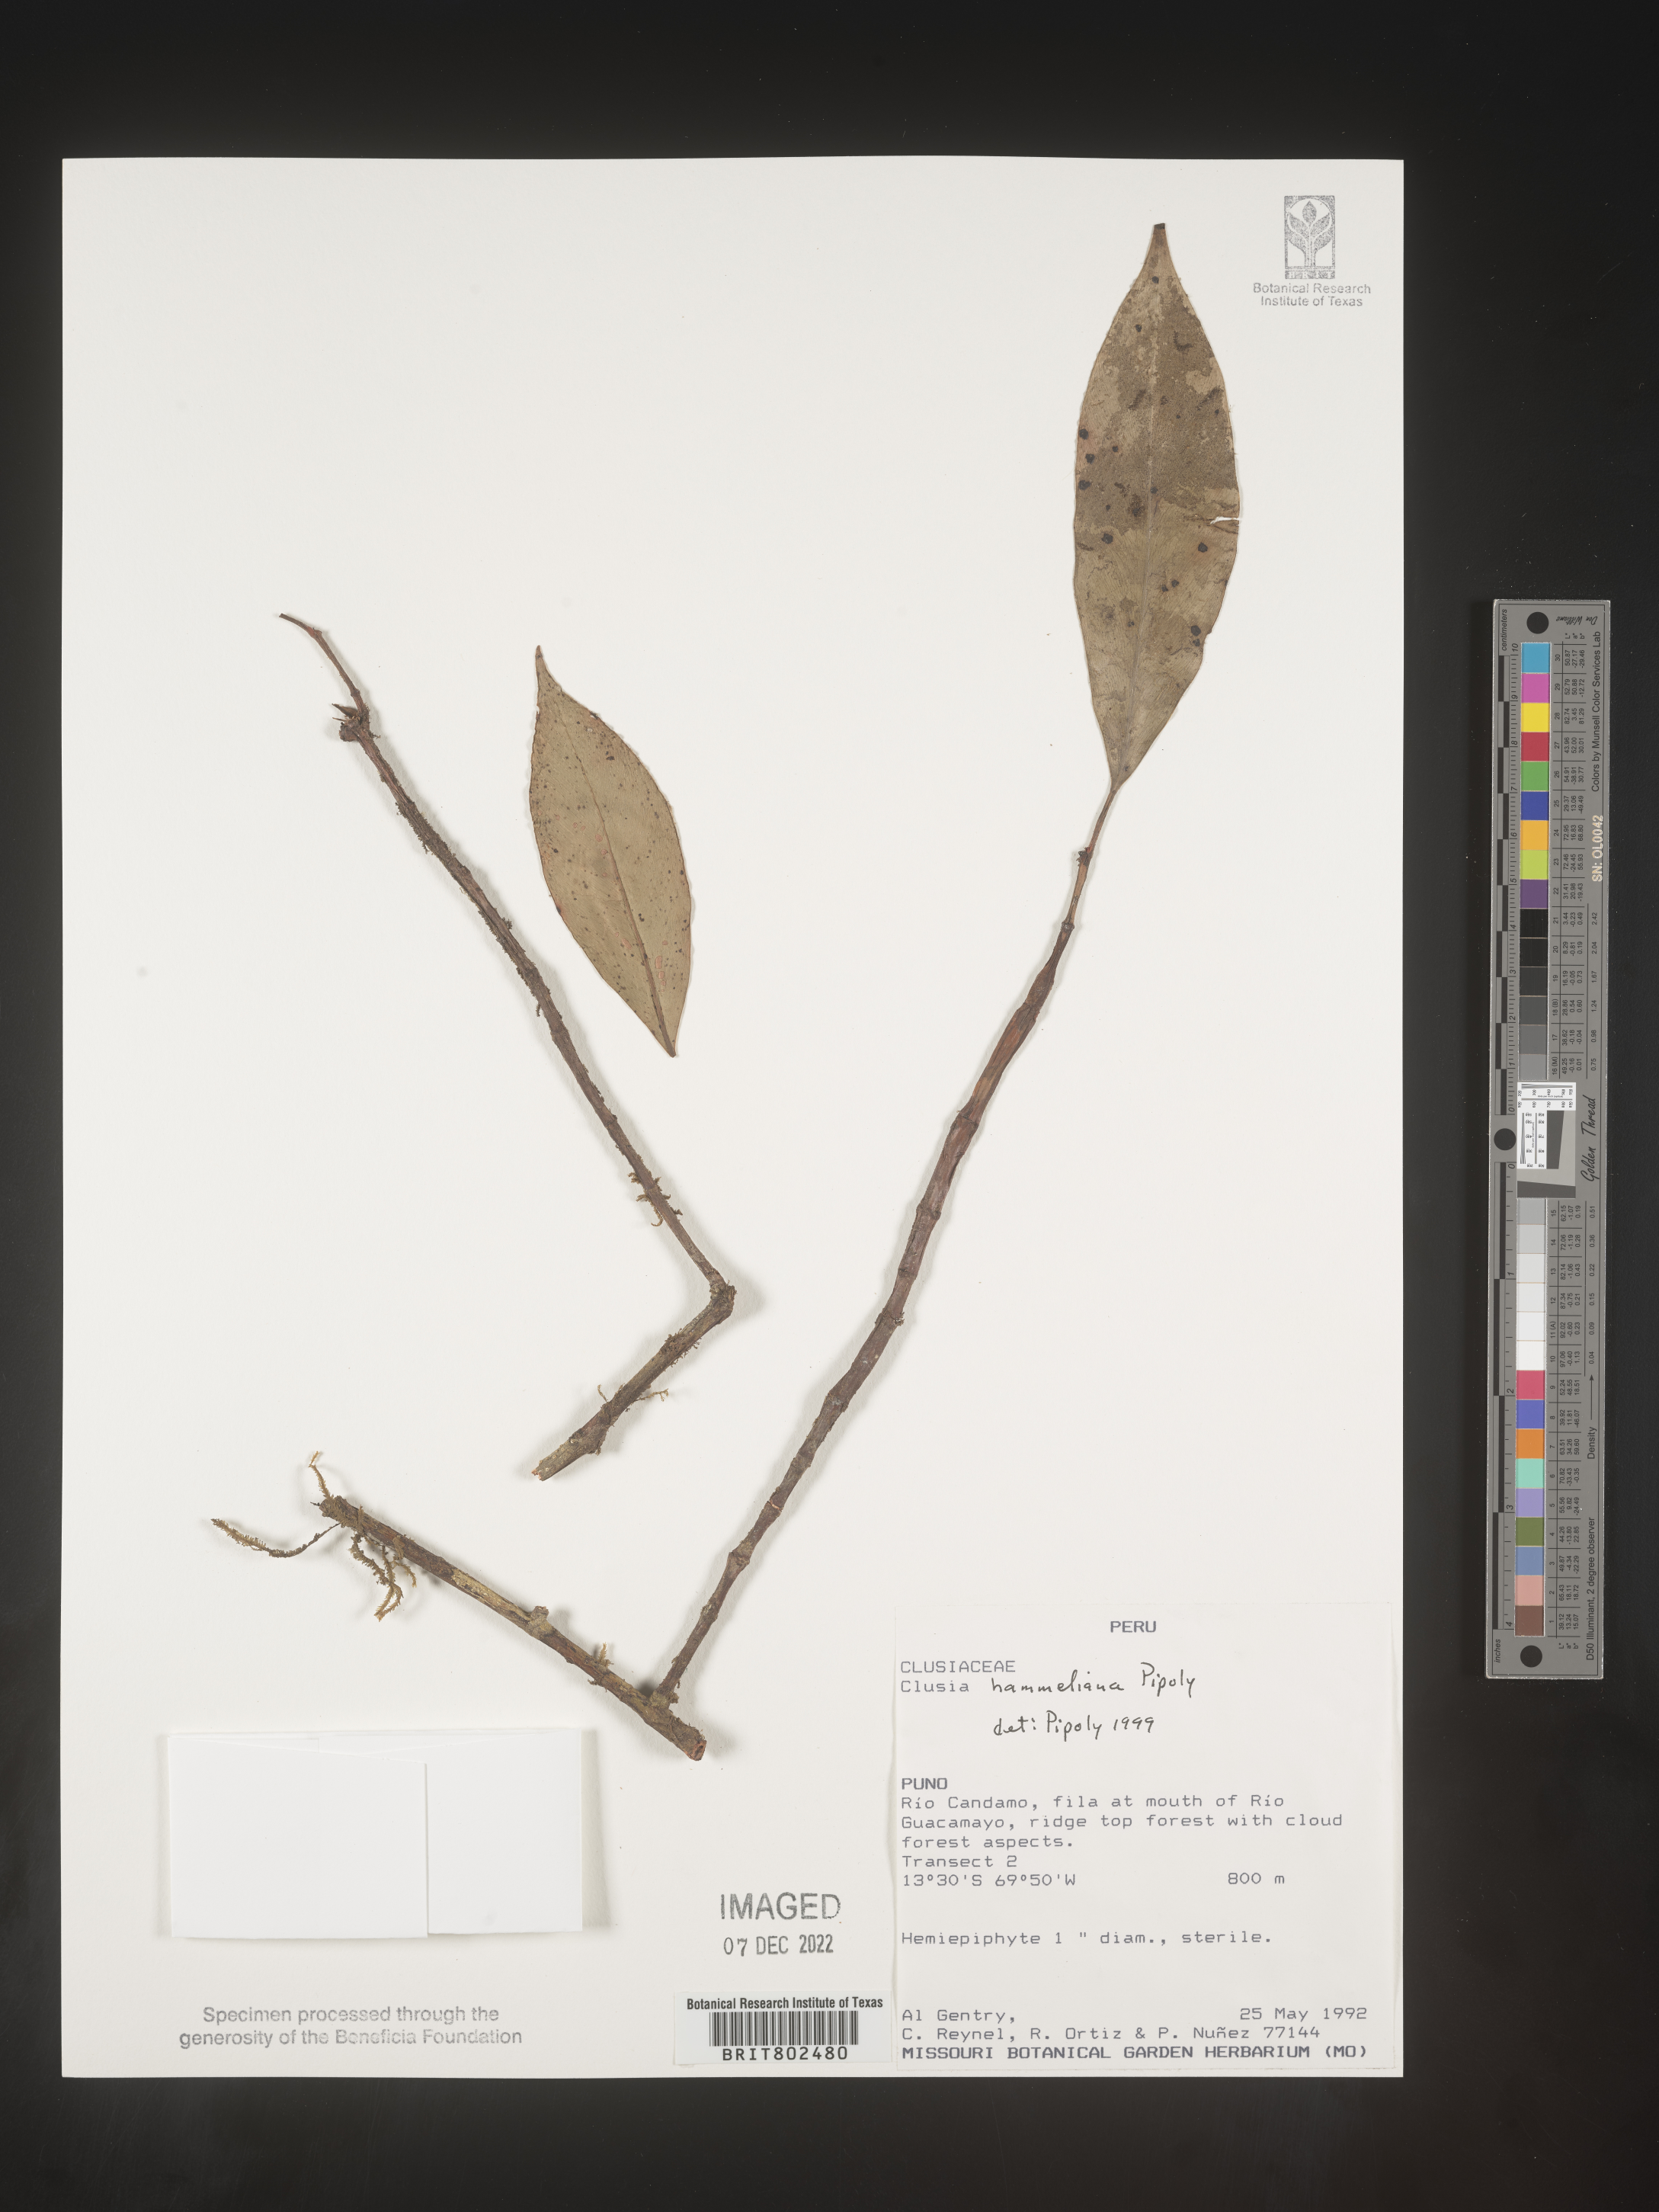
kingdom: Plantae
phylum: Tracheophyta
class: Magnoliopsida
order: Malpighiales
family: Clusiaceae
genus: Clusia
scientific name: Clusia hammeliana
